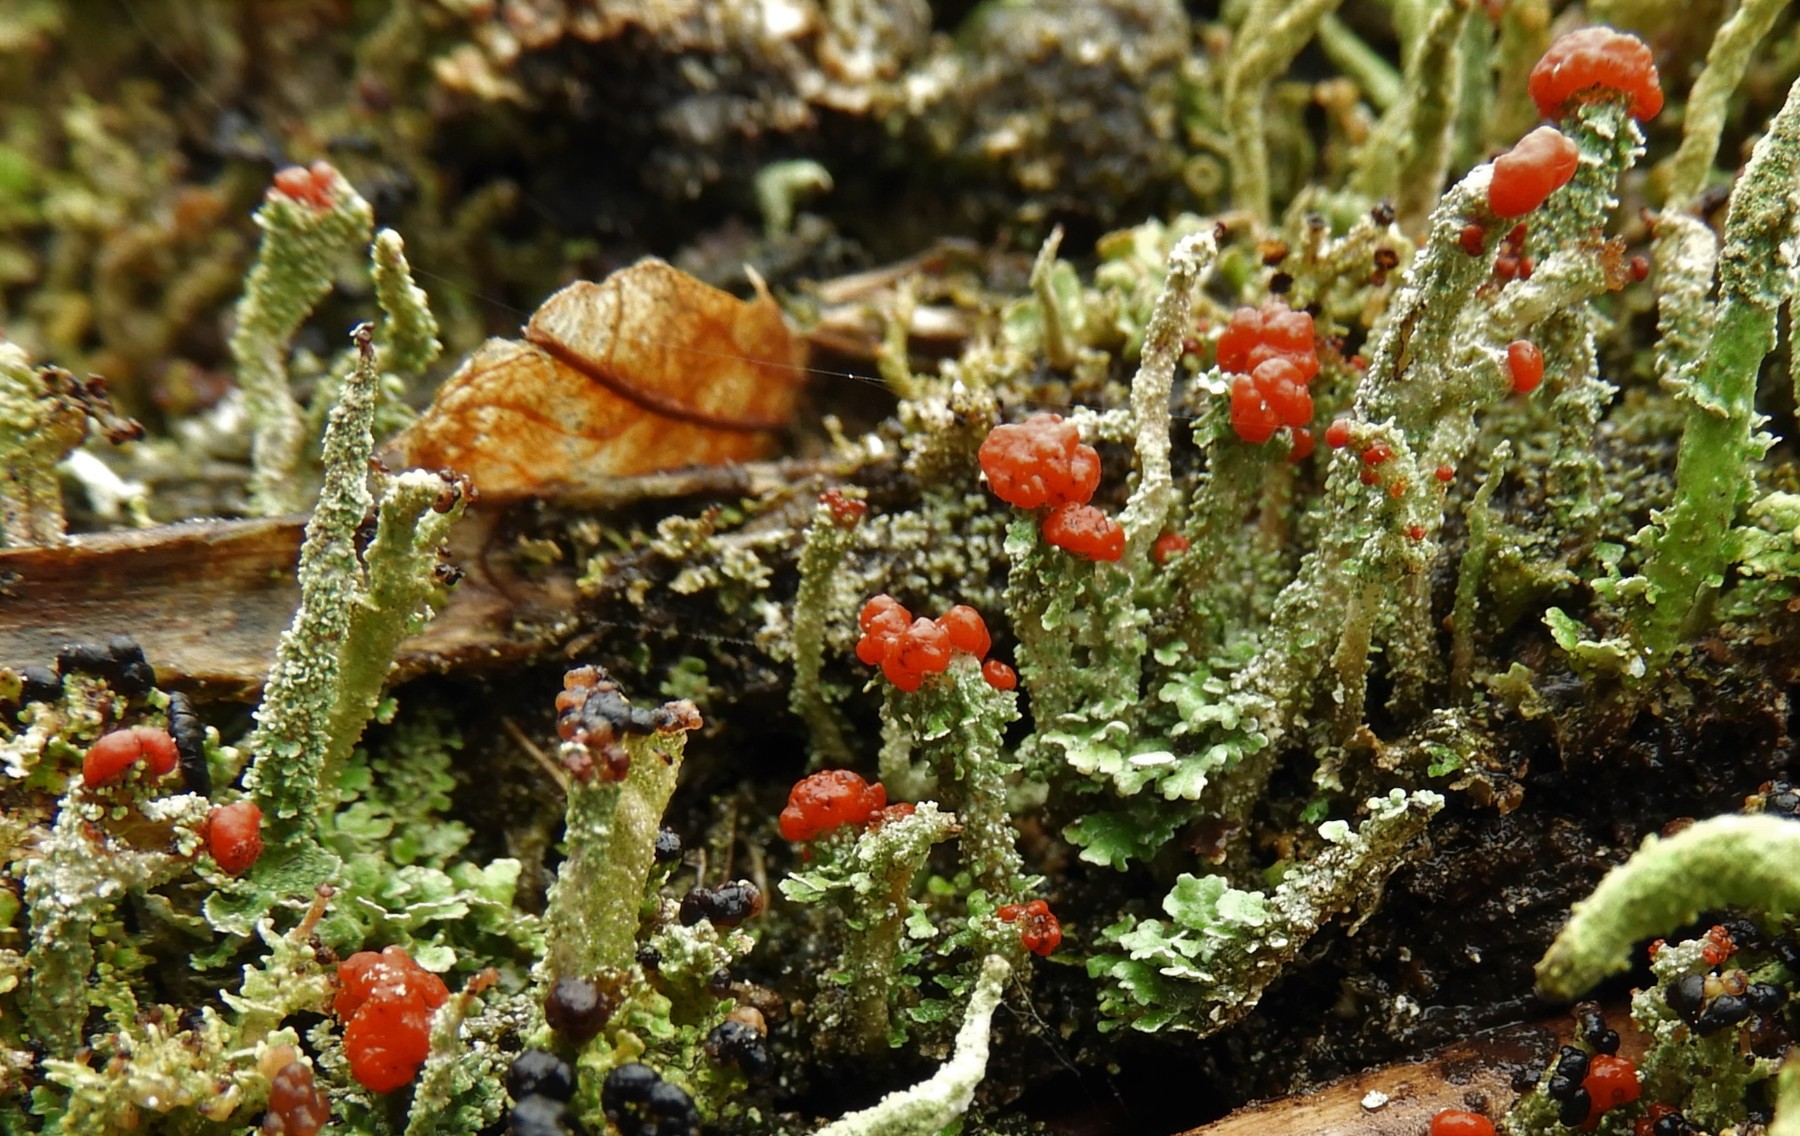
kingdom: Fungi
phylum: Ascomycota
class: Lecanoromycetes
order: Lecanorales
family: Cladoniaceae
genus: Cladonia
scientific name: Cladonia floerkeana
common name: lakrød bægerlav
